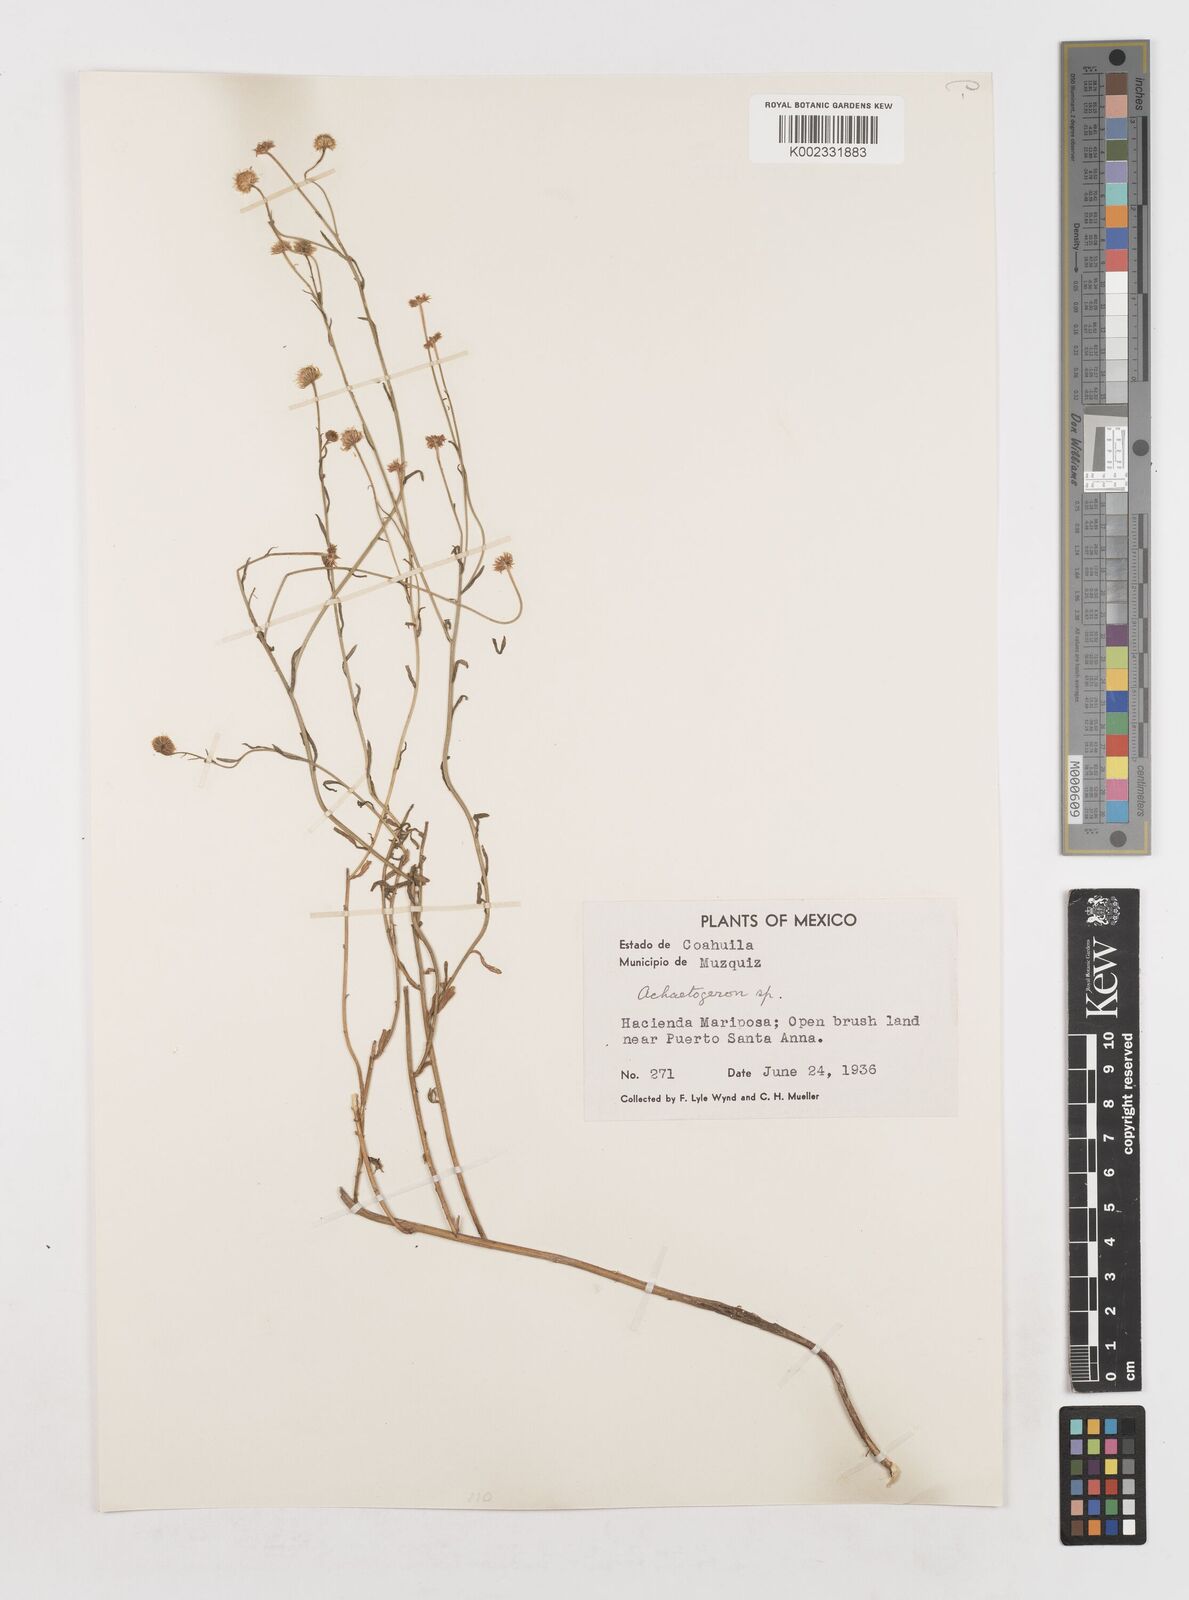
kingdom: Plantae
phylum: Tracheophyta
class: Magnoliopsida
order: Asterales
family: Asteraceae
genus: Erigeron
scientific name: Erigeron
